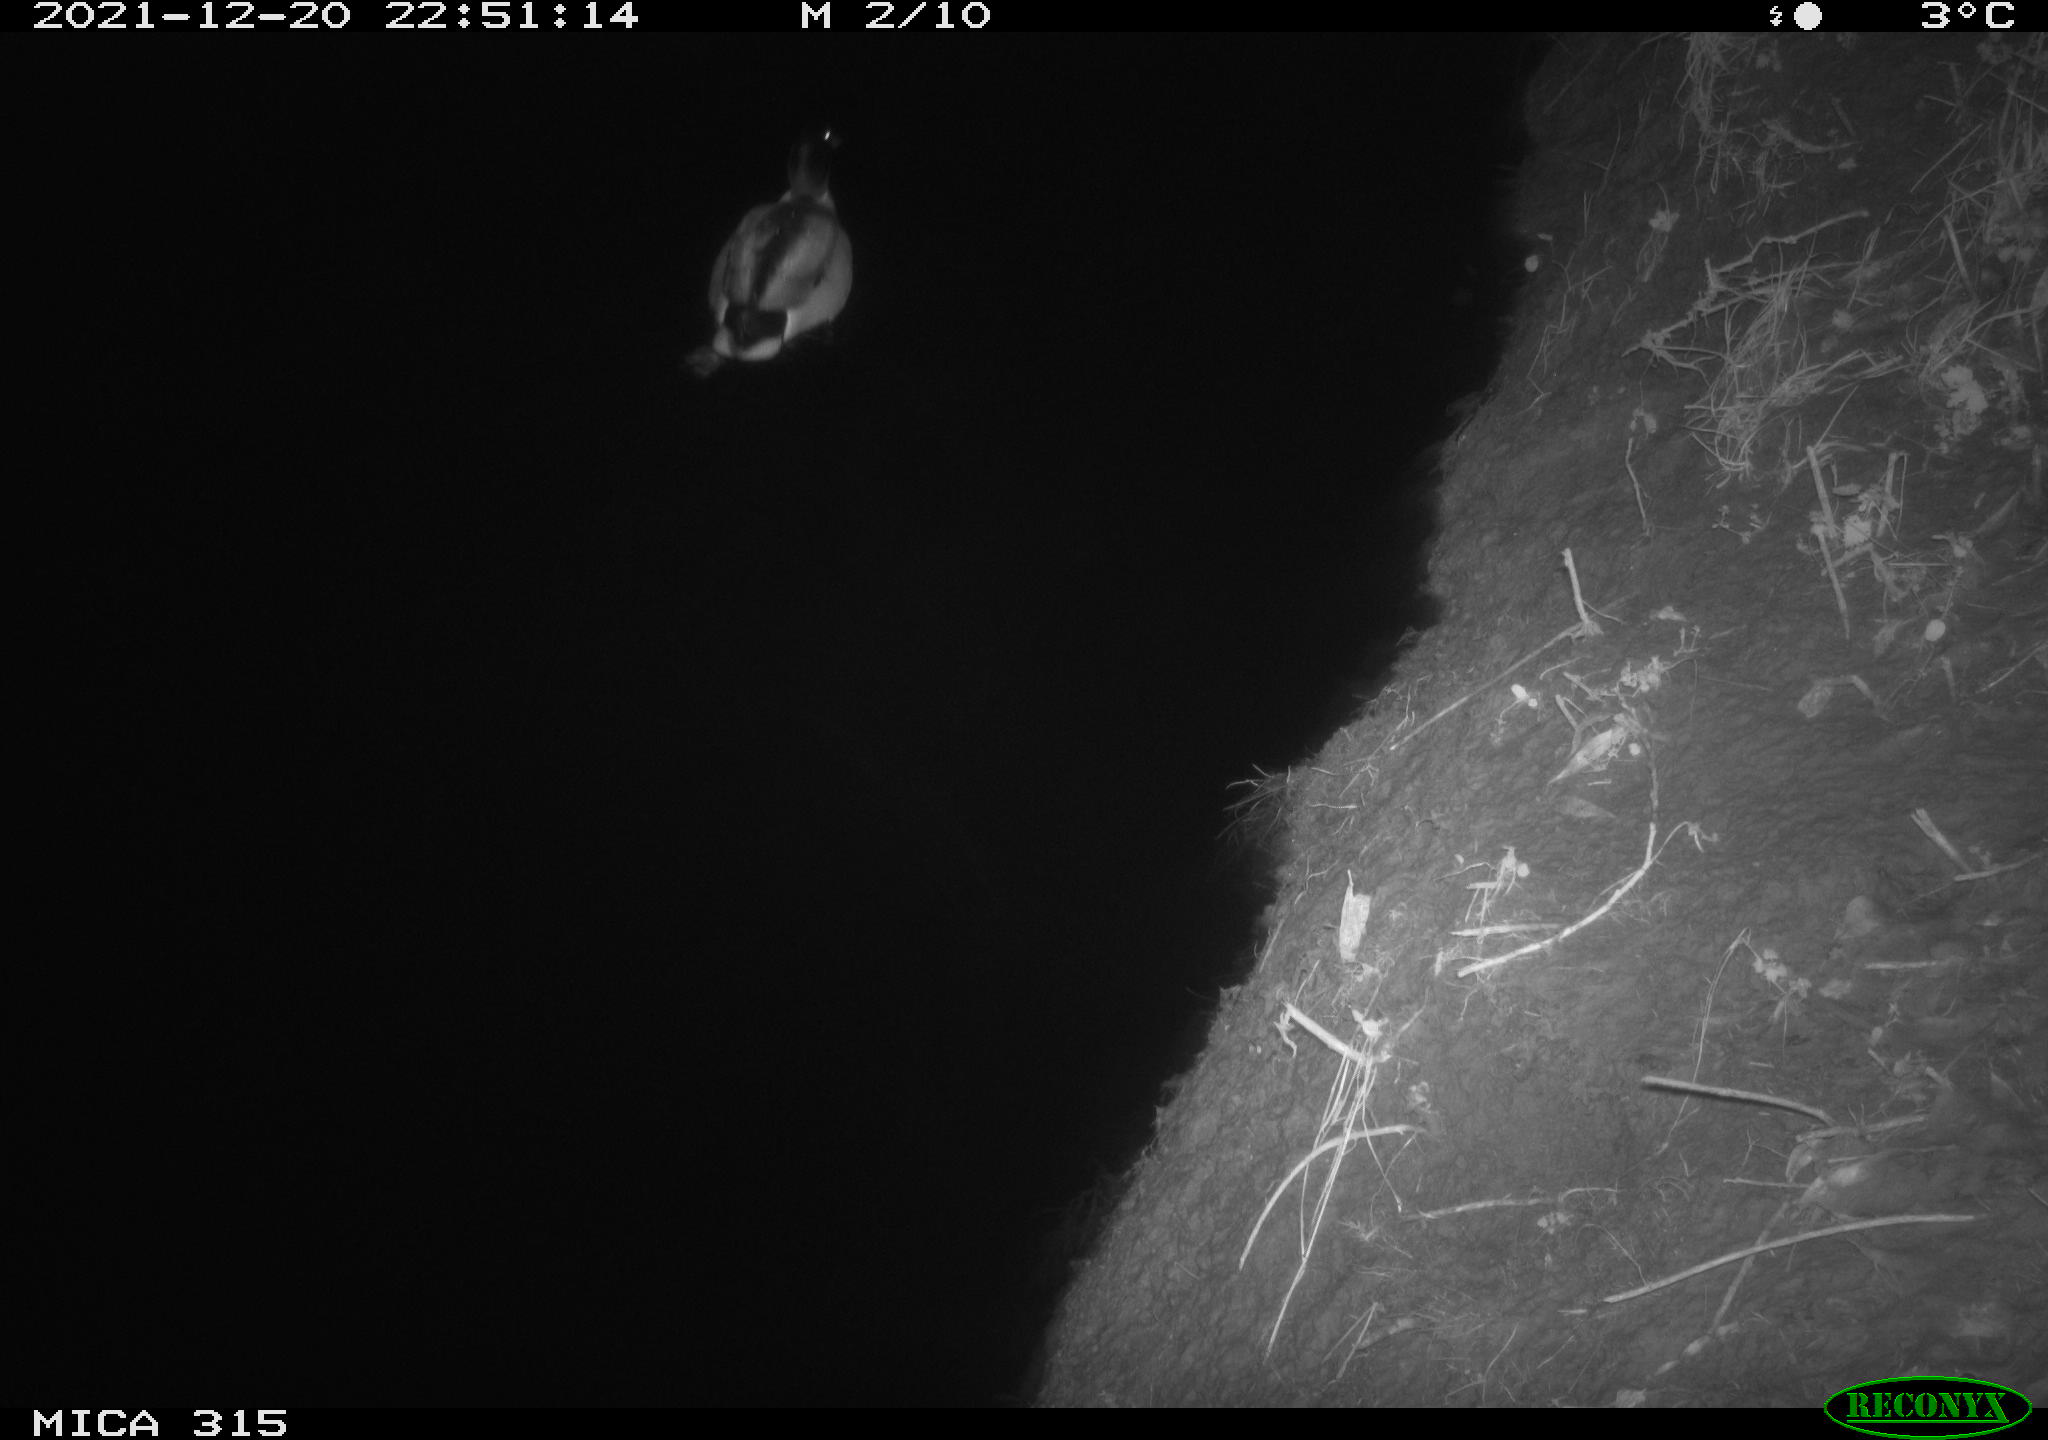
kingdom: Animalia
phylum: Chordata
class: Aves
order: Anseriformes
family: Anatidae
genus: Anas
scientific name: Anas
